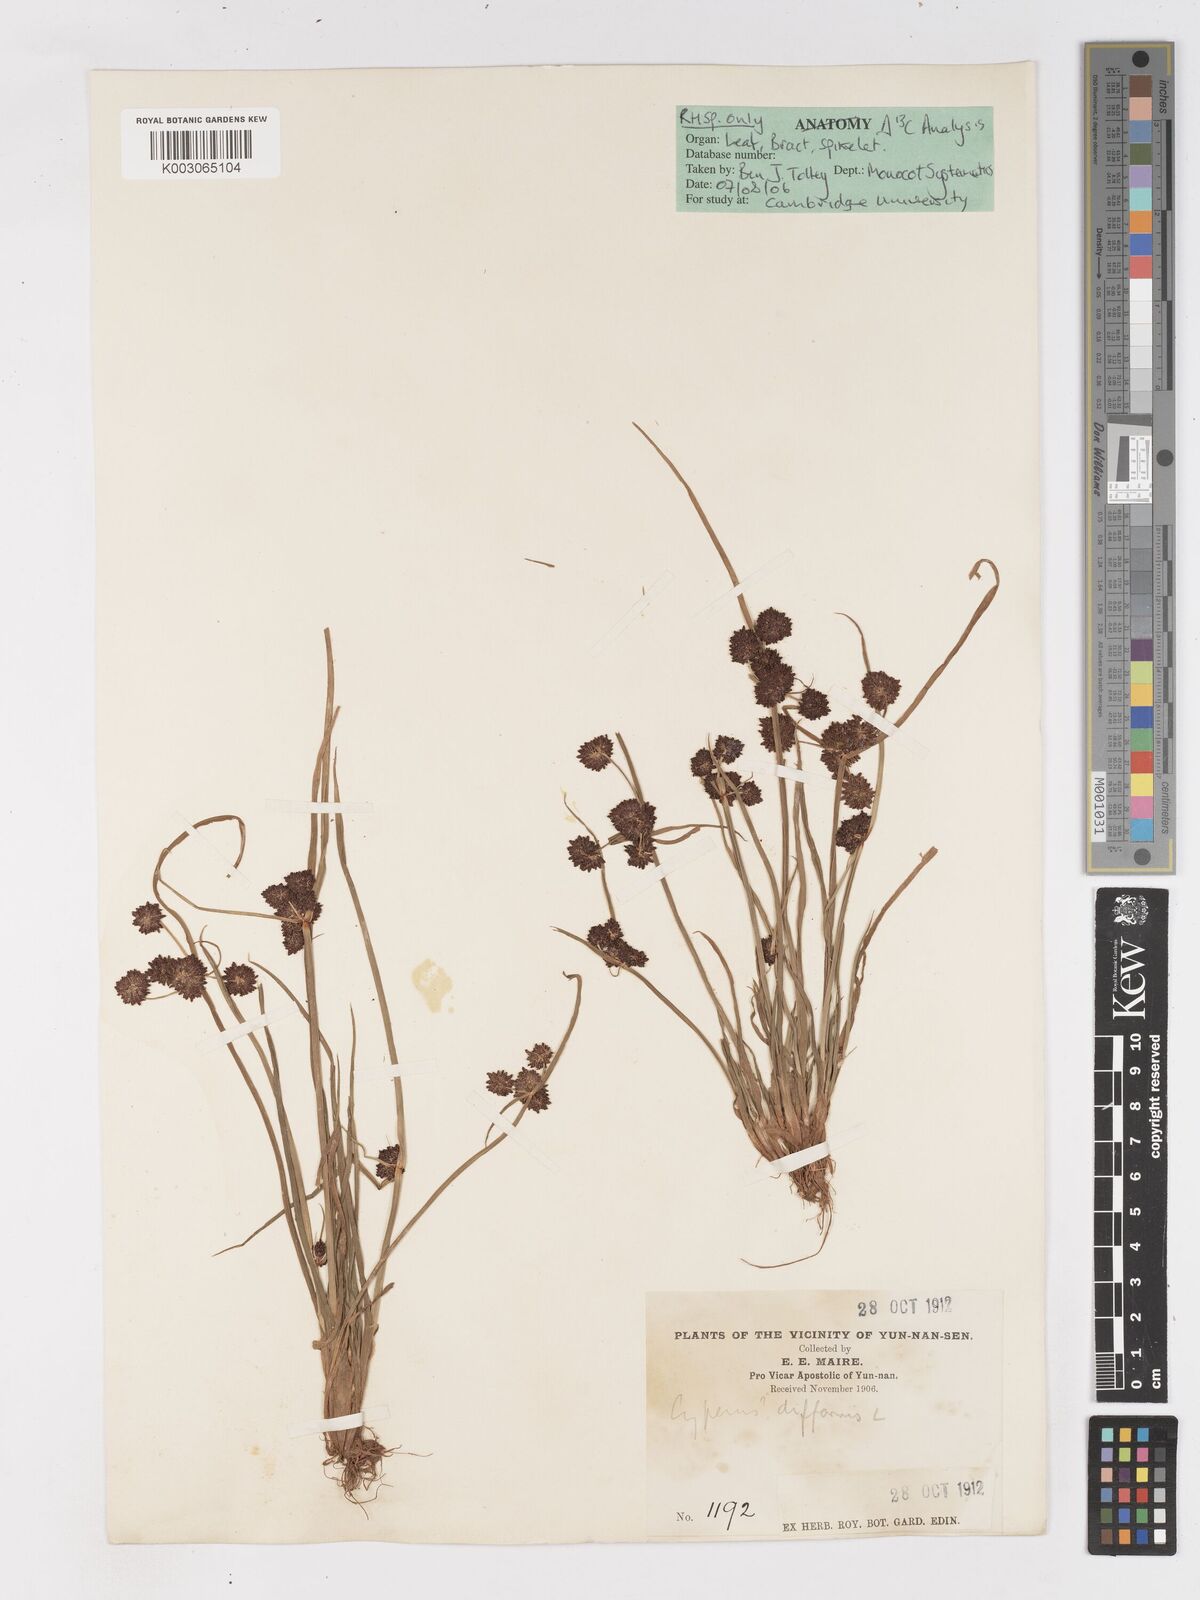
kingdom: Plantae
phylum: Tracheophyta
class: Liliopsida
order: Poales
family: Cyperaceae
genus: Cyperus
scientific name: Cyperus difformis
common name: Variable flatsedge
